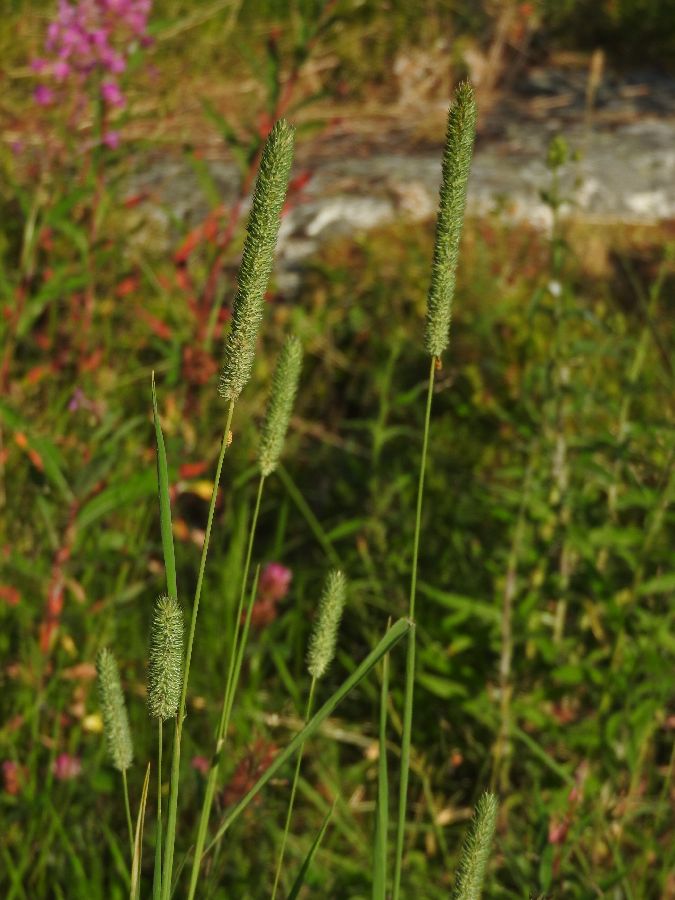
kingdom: Plantae
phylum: Tracheophyta
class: Liliopsida
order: Poales
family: Poaceae
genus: Phleum
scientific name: Phleum pratense
